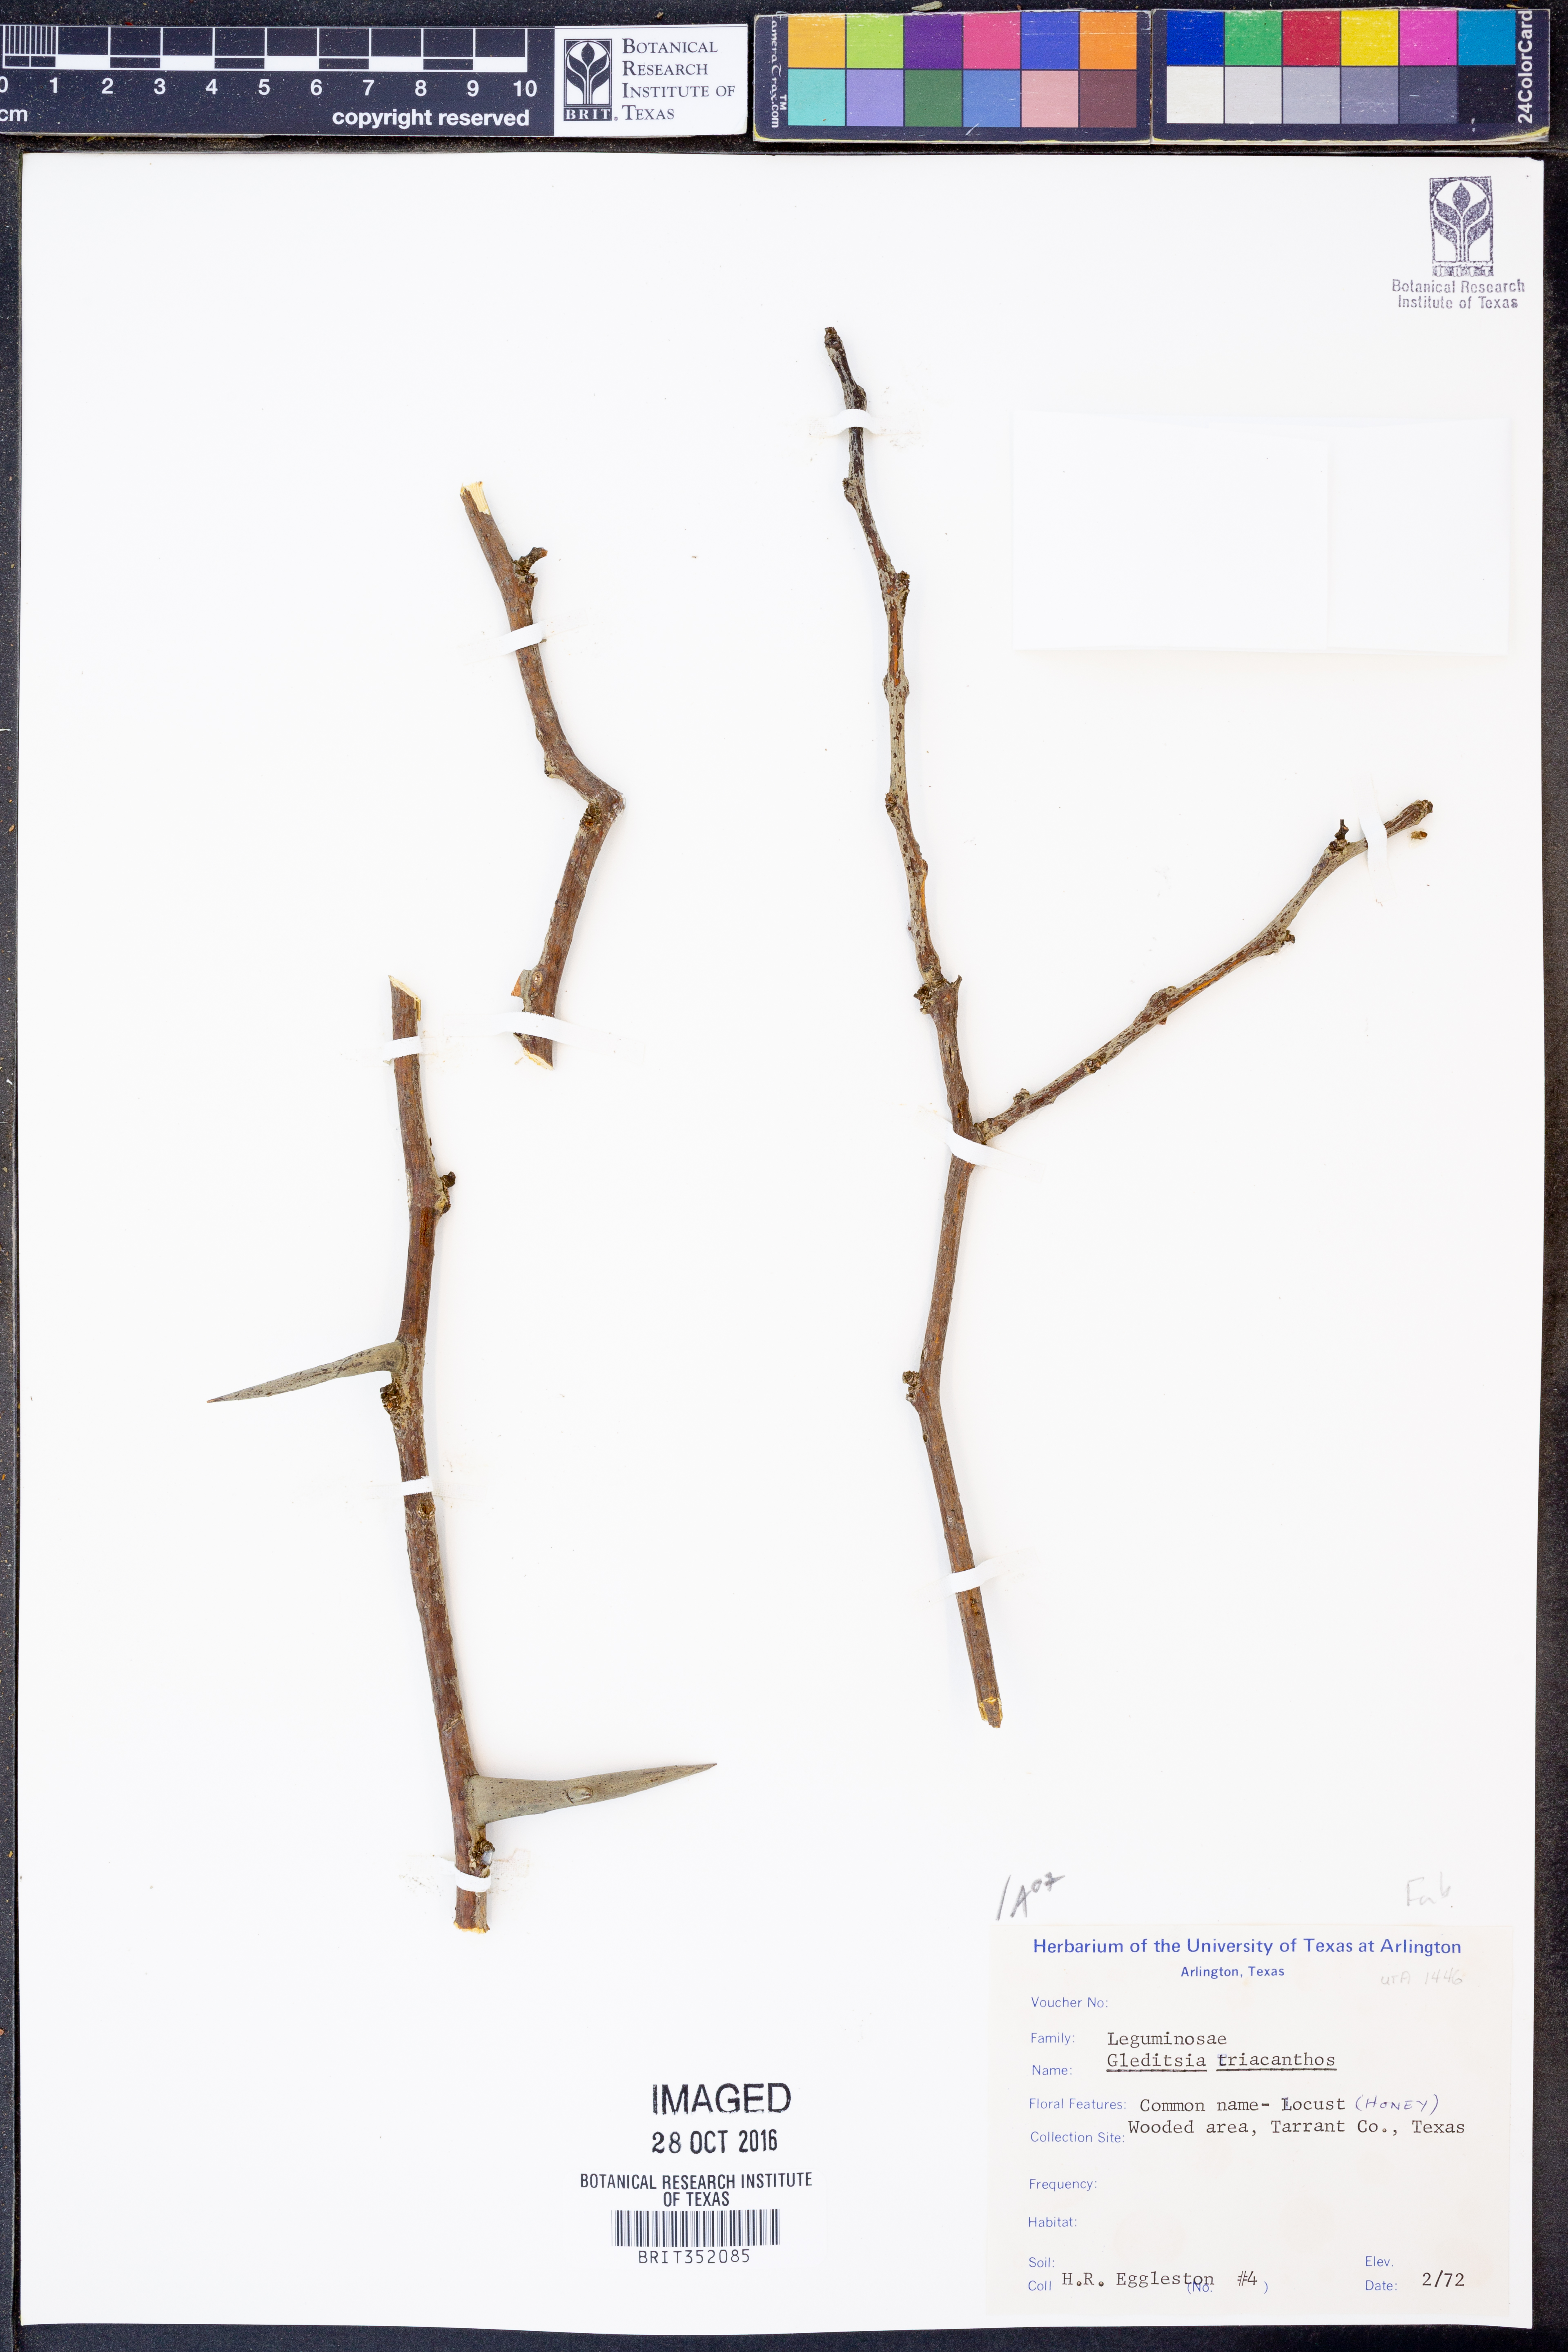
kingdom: Plantae
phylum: Tracheophyta
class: Magnoliopsida
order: Fabales
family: Fabaceae
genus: Gleditsia
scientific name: Gleditsia triacanthos
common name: Common honeylocust
